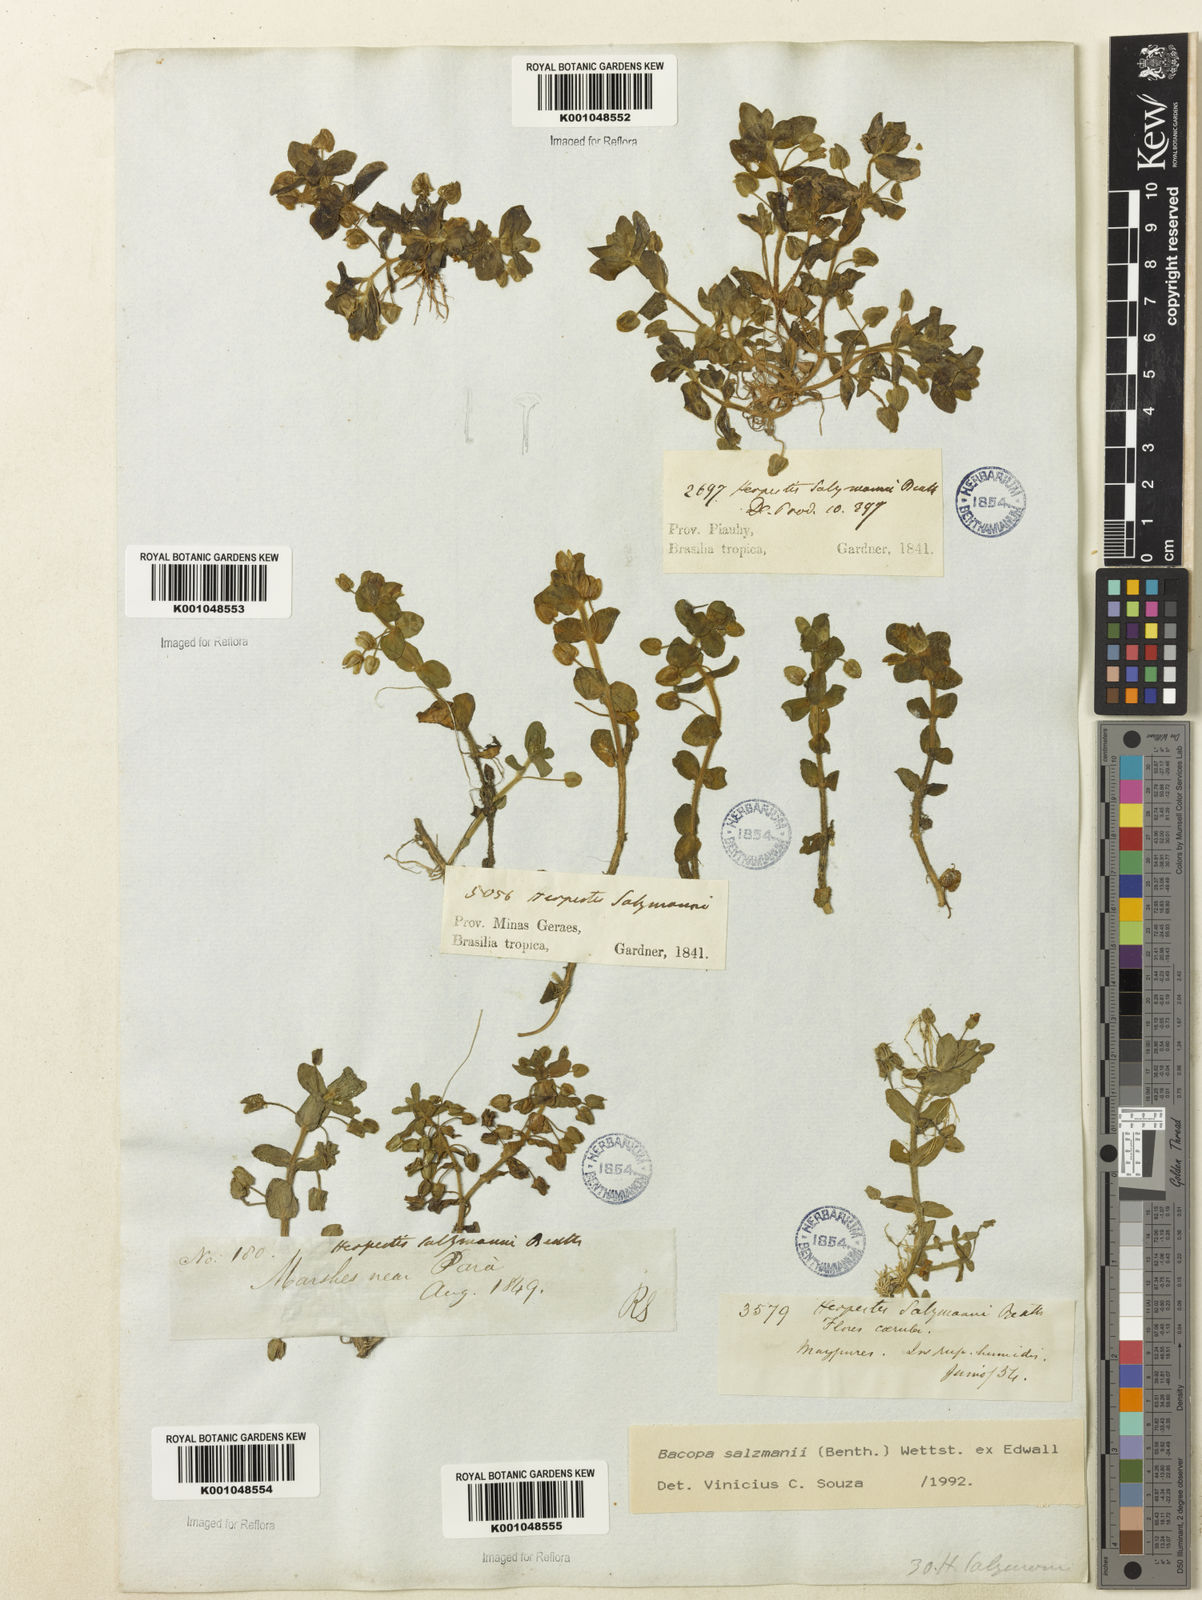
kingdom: Plantae
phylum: Tracheophyta
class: Magnoliopsida
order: Lamiales
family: Plantaginaceae
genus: Bacopa
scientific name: Bacopa salzmannii
